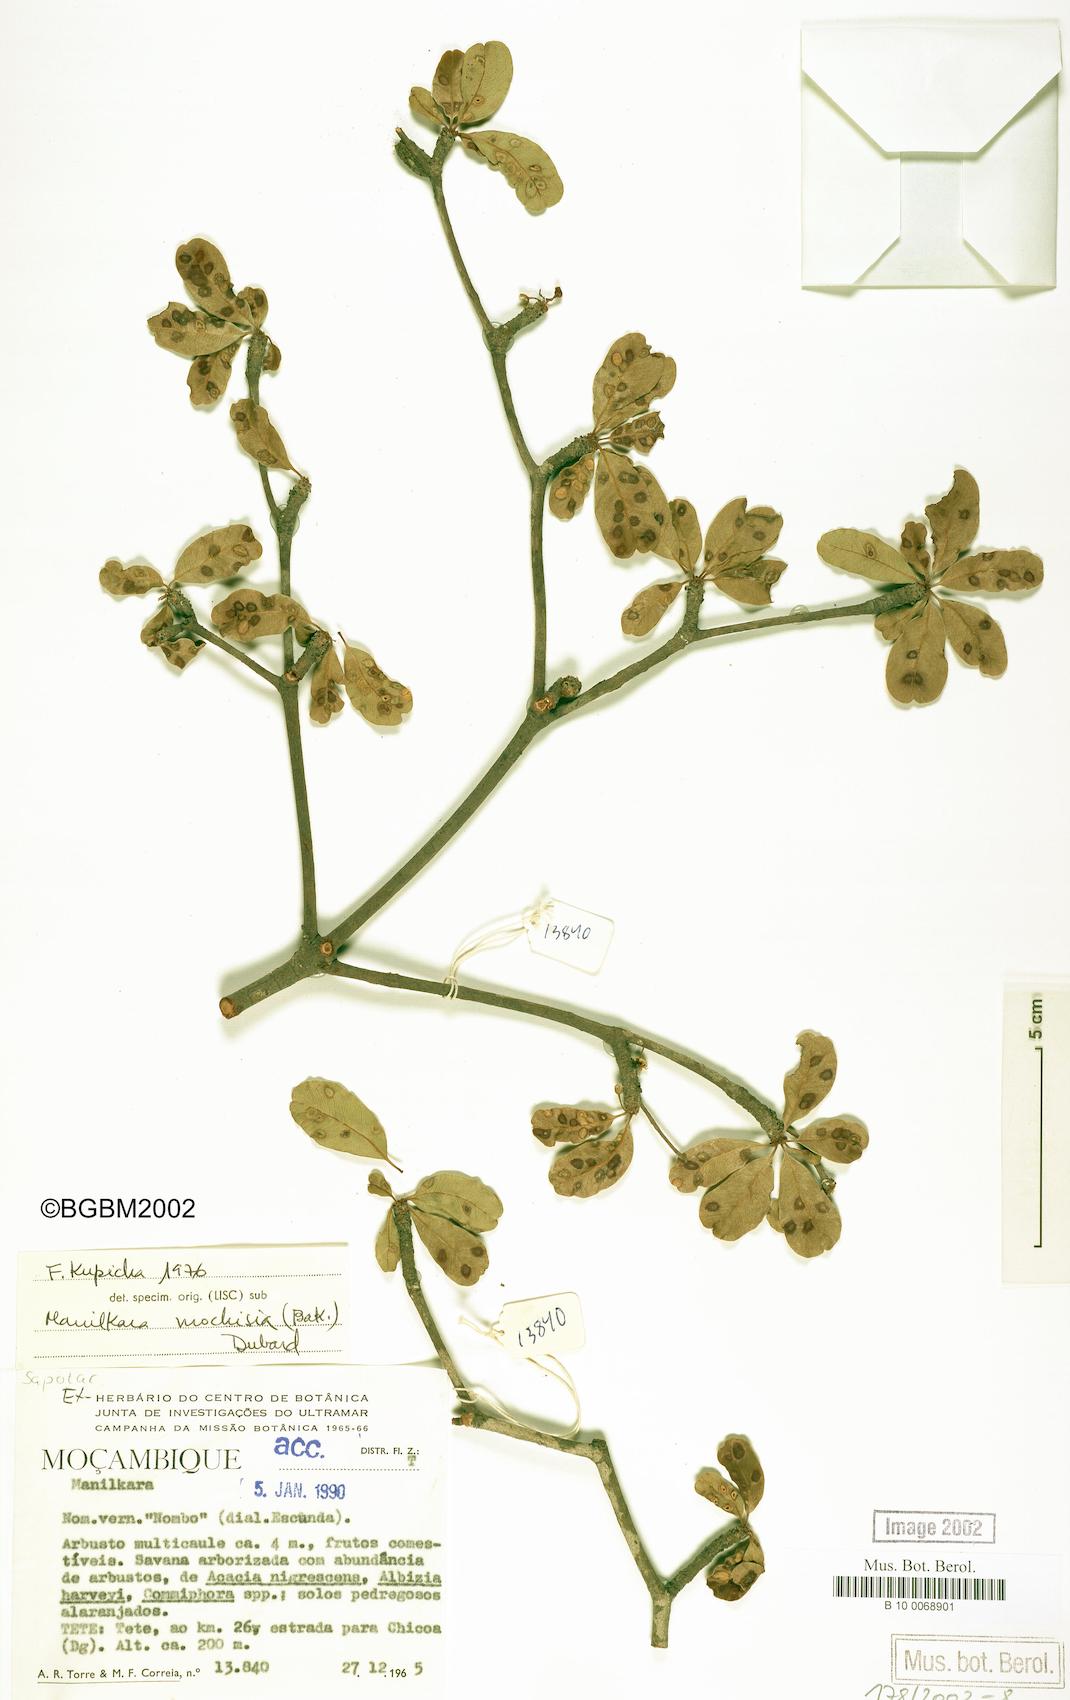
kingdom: Plantae
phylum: Tracheophyta
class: Magnoliopsida
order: Ericales
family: Sapotaceae
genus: Manilkara
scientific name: Manilkara mochisia
